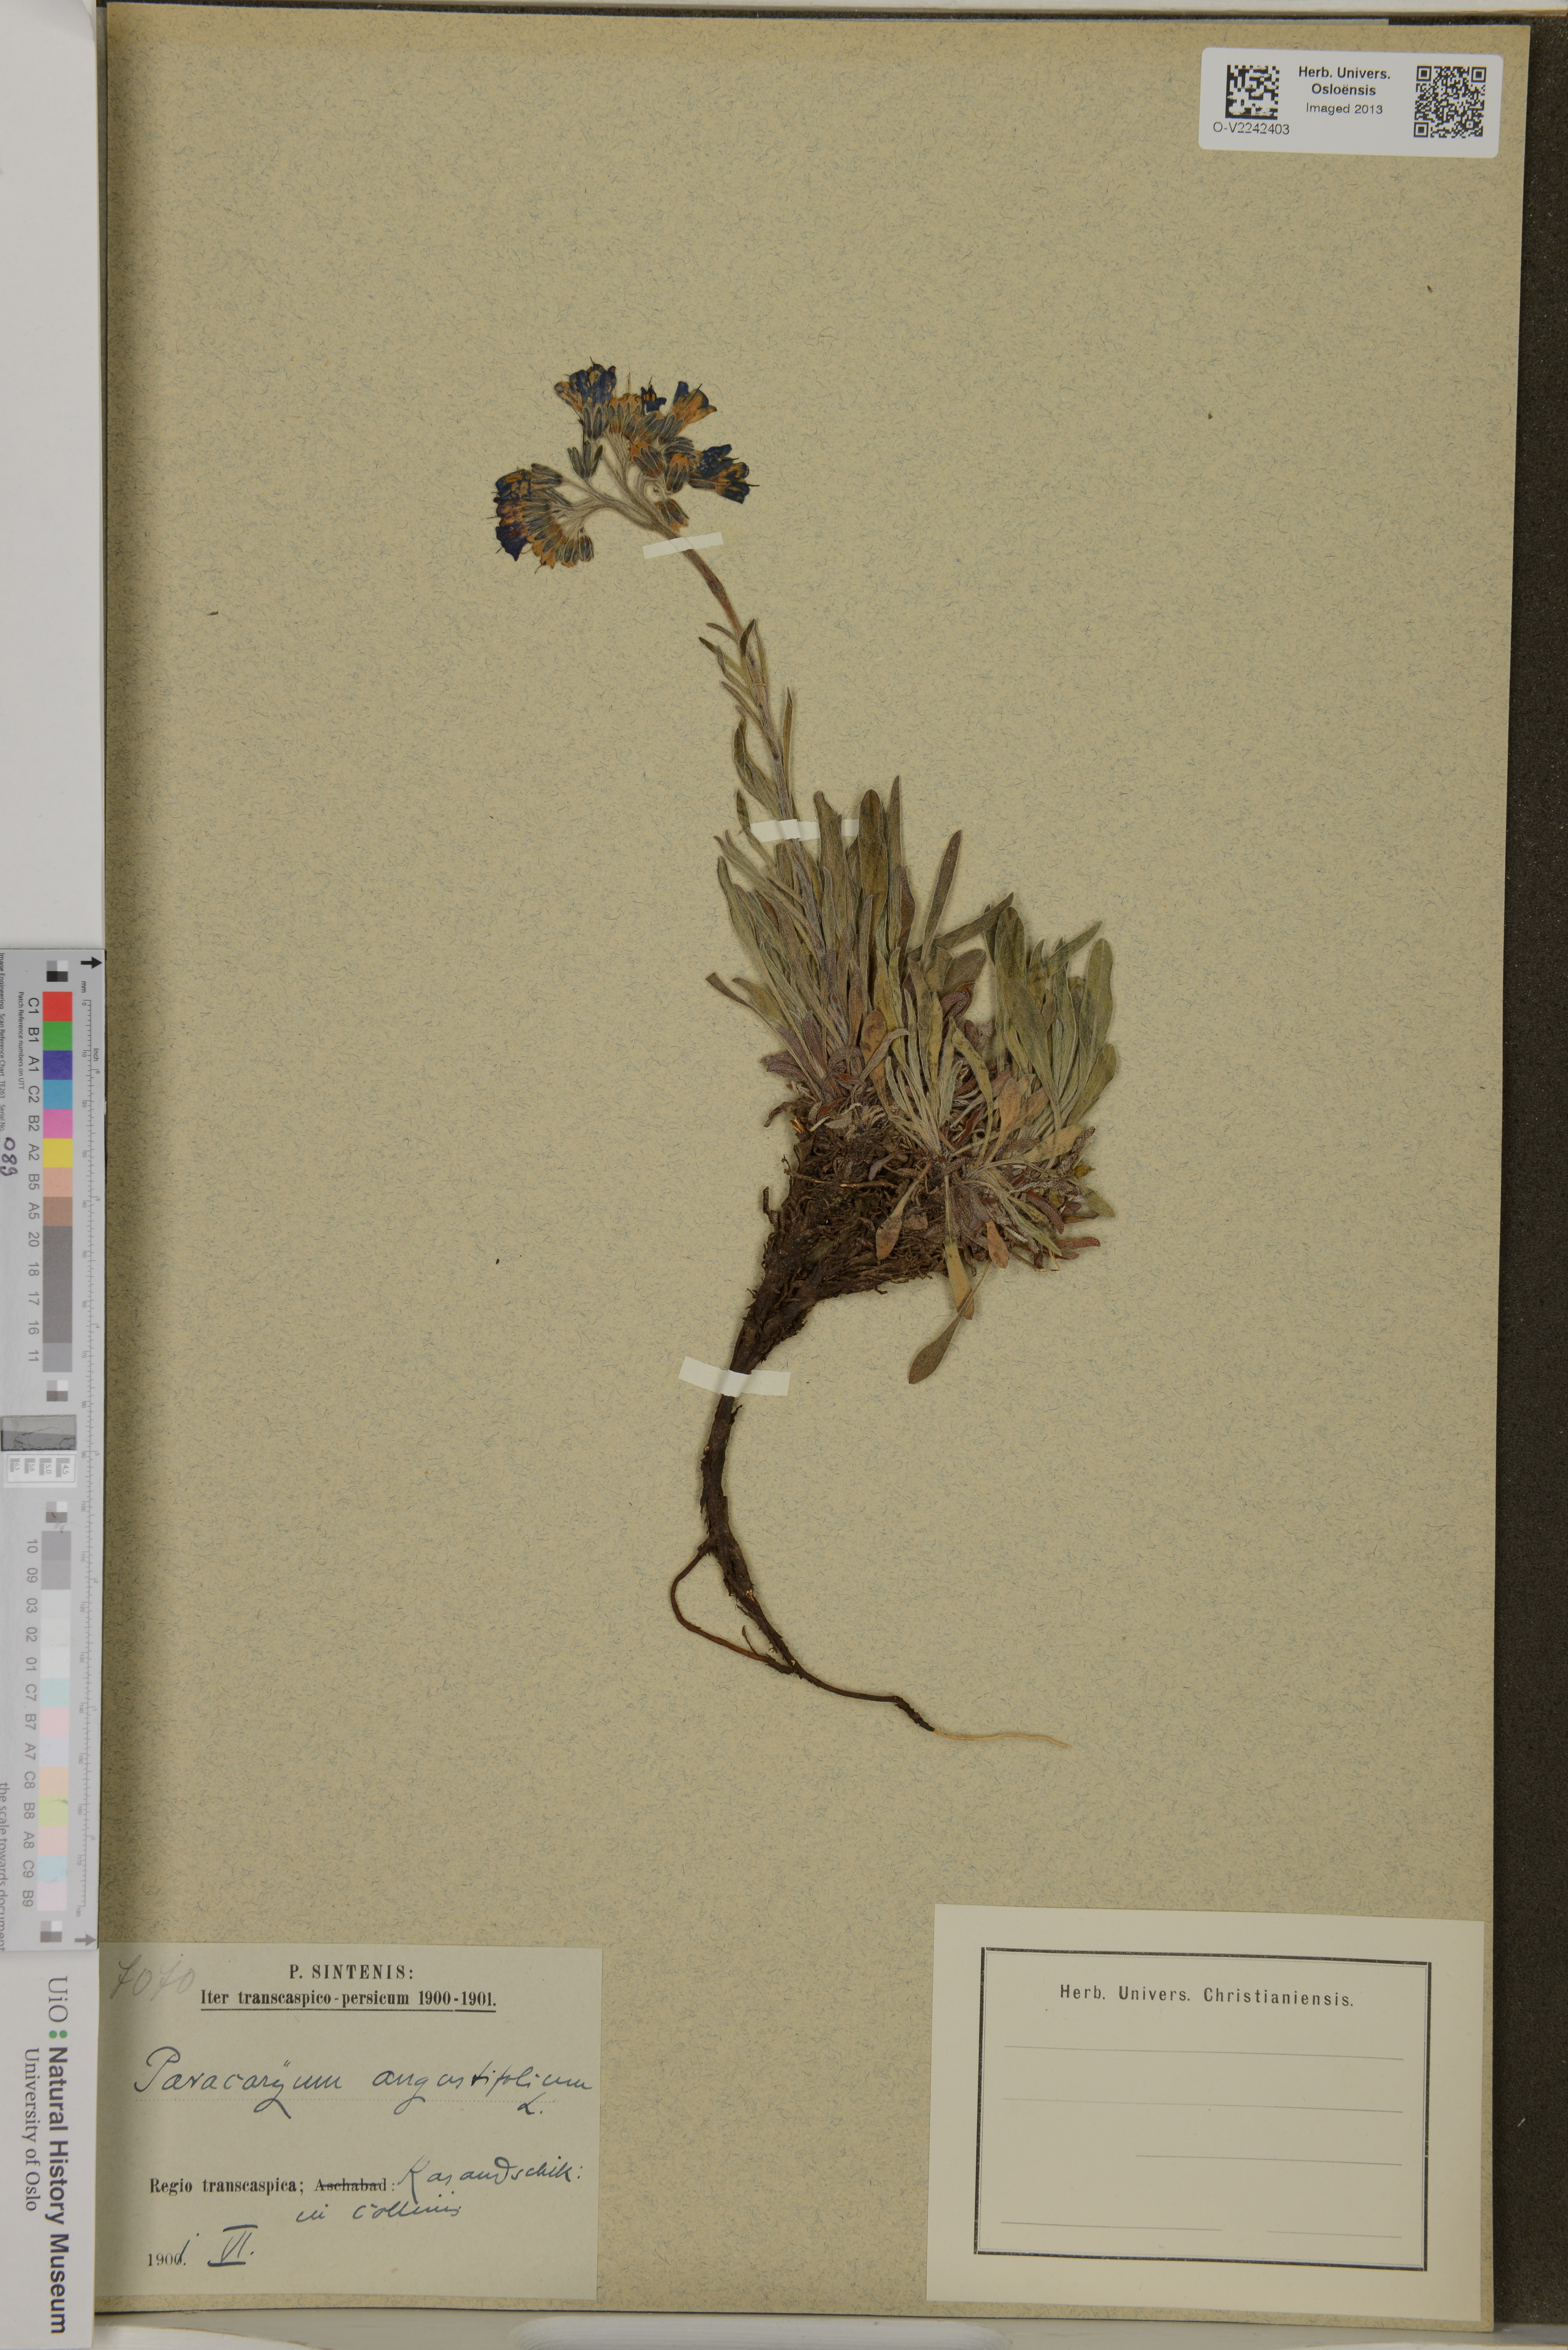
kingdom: Plantae
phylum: Tracheophyta
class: Magnoliopsida
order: Boraginales
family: Boraginaceae
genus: Paracaryum
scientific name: Paracaryum racemosum
